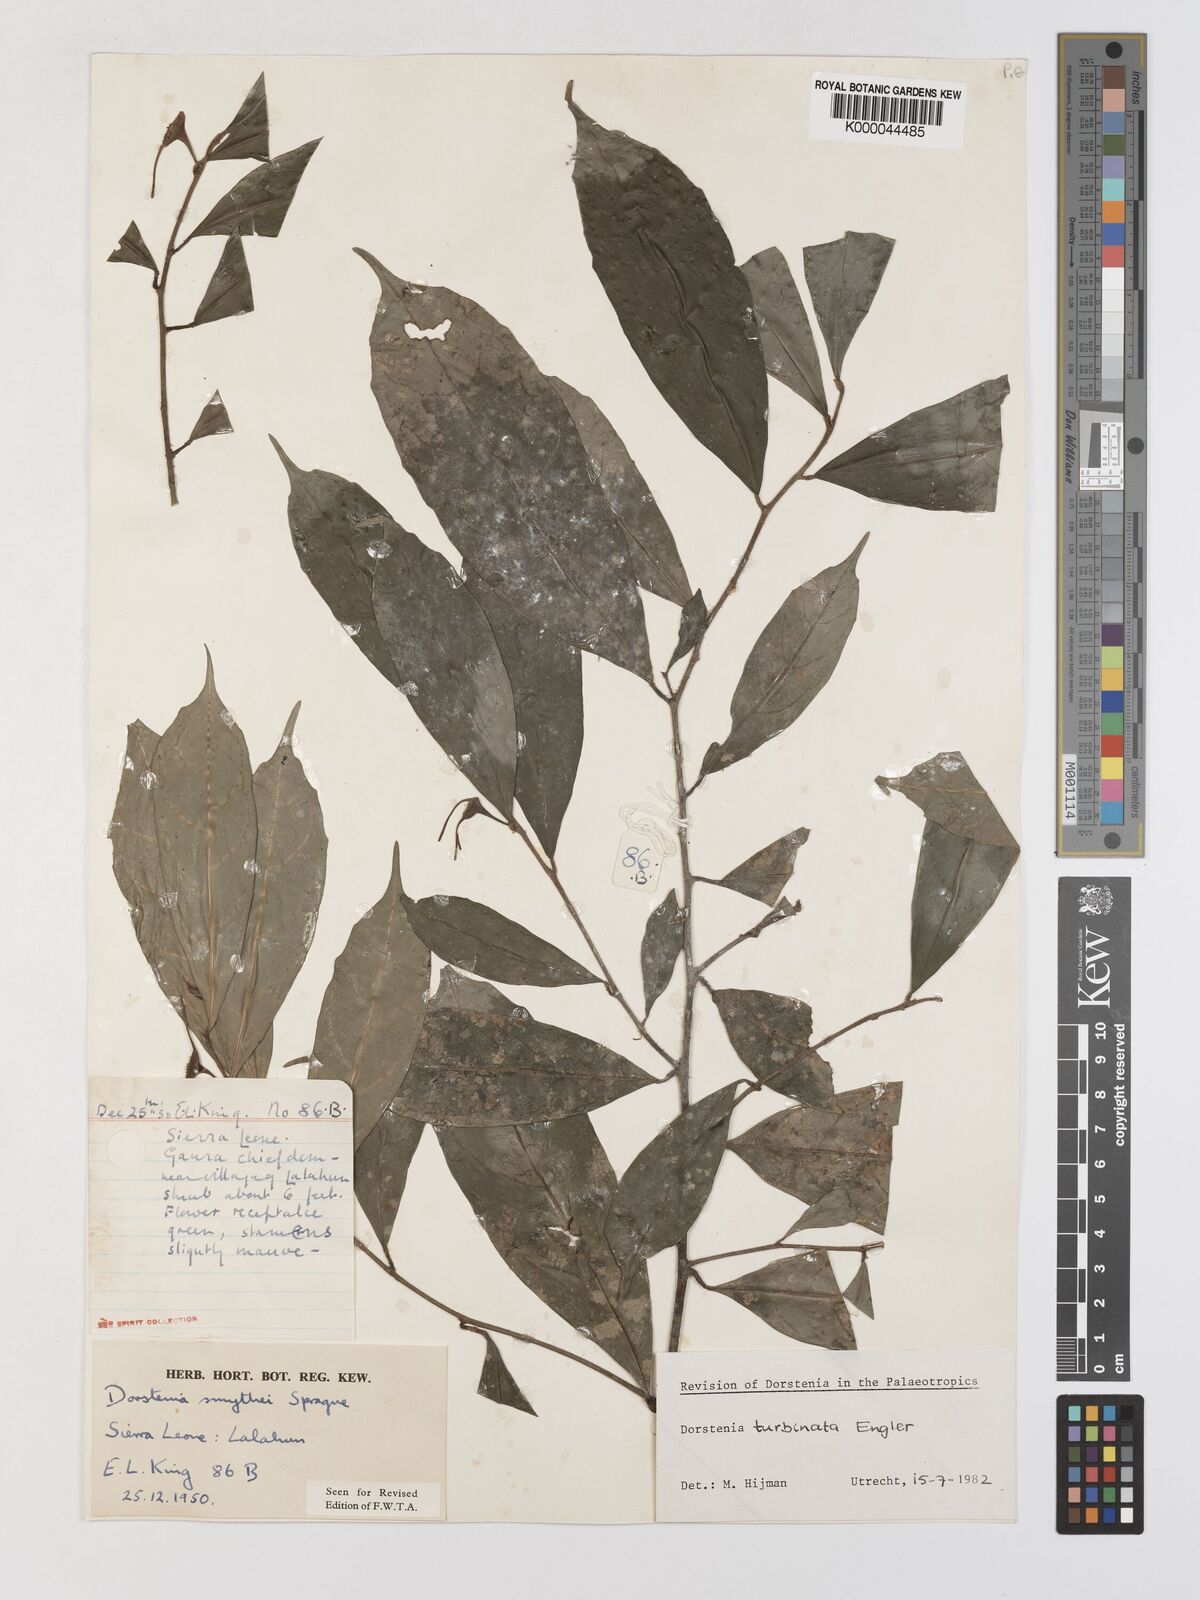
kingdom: Plantae
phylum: Tracheophyta
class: Magnoliopsida
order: Rosales
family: Moraceae
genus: Hijmania
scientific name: Hijmania turbinata
